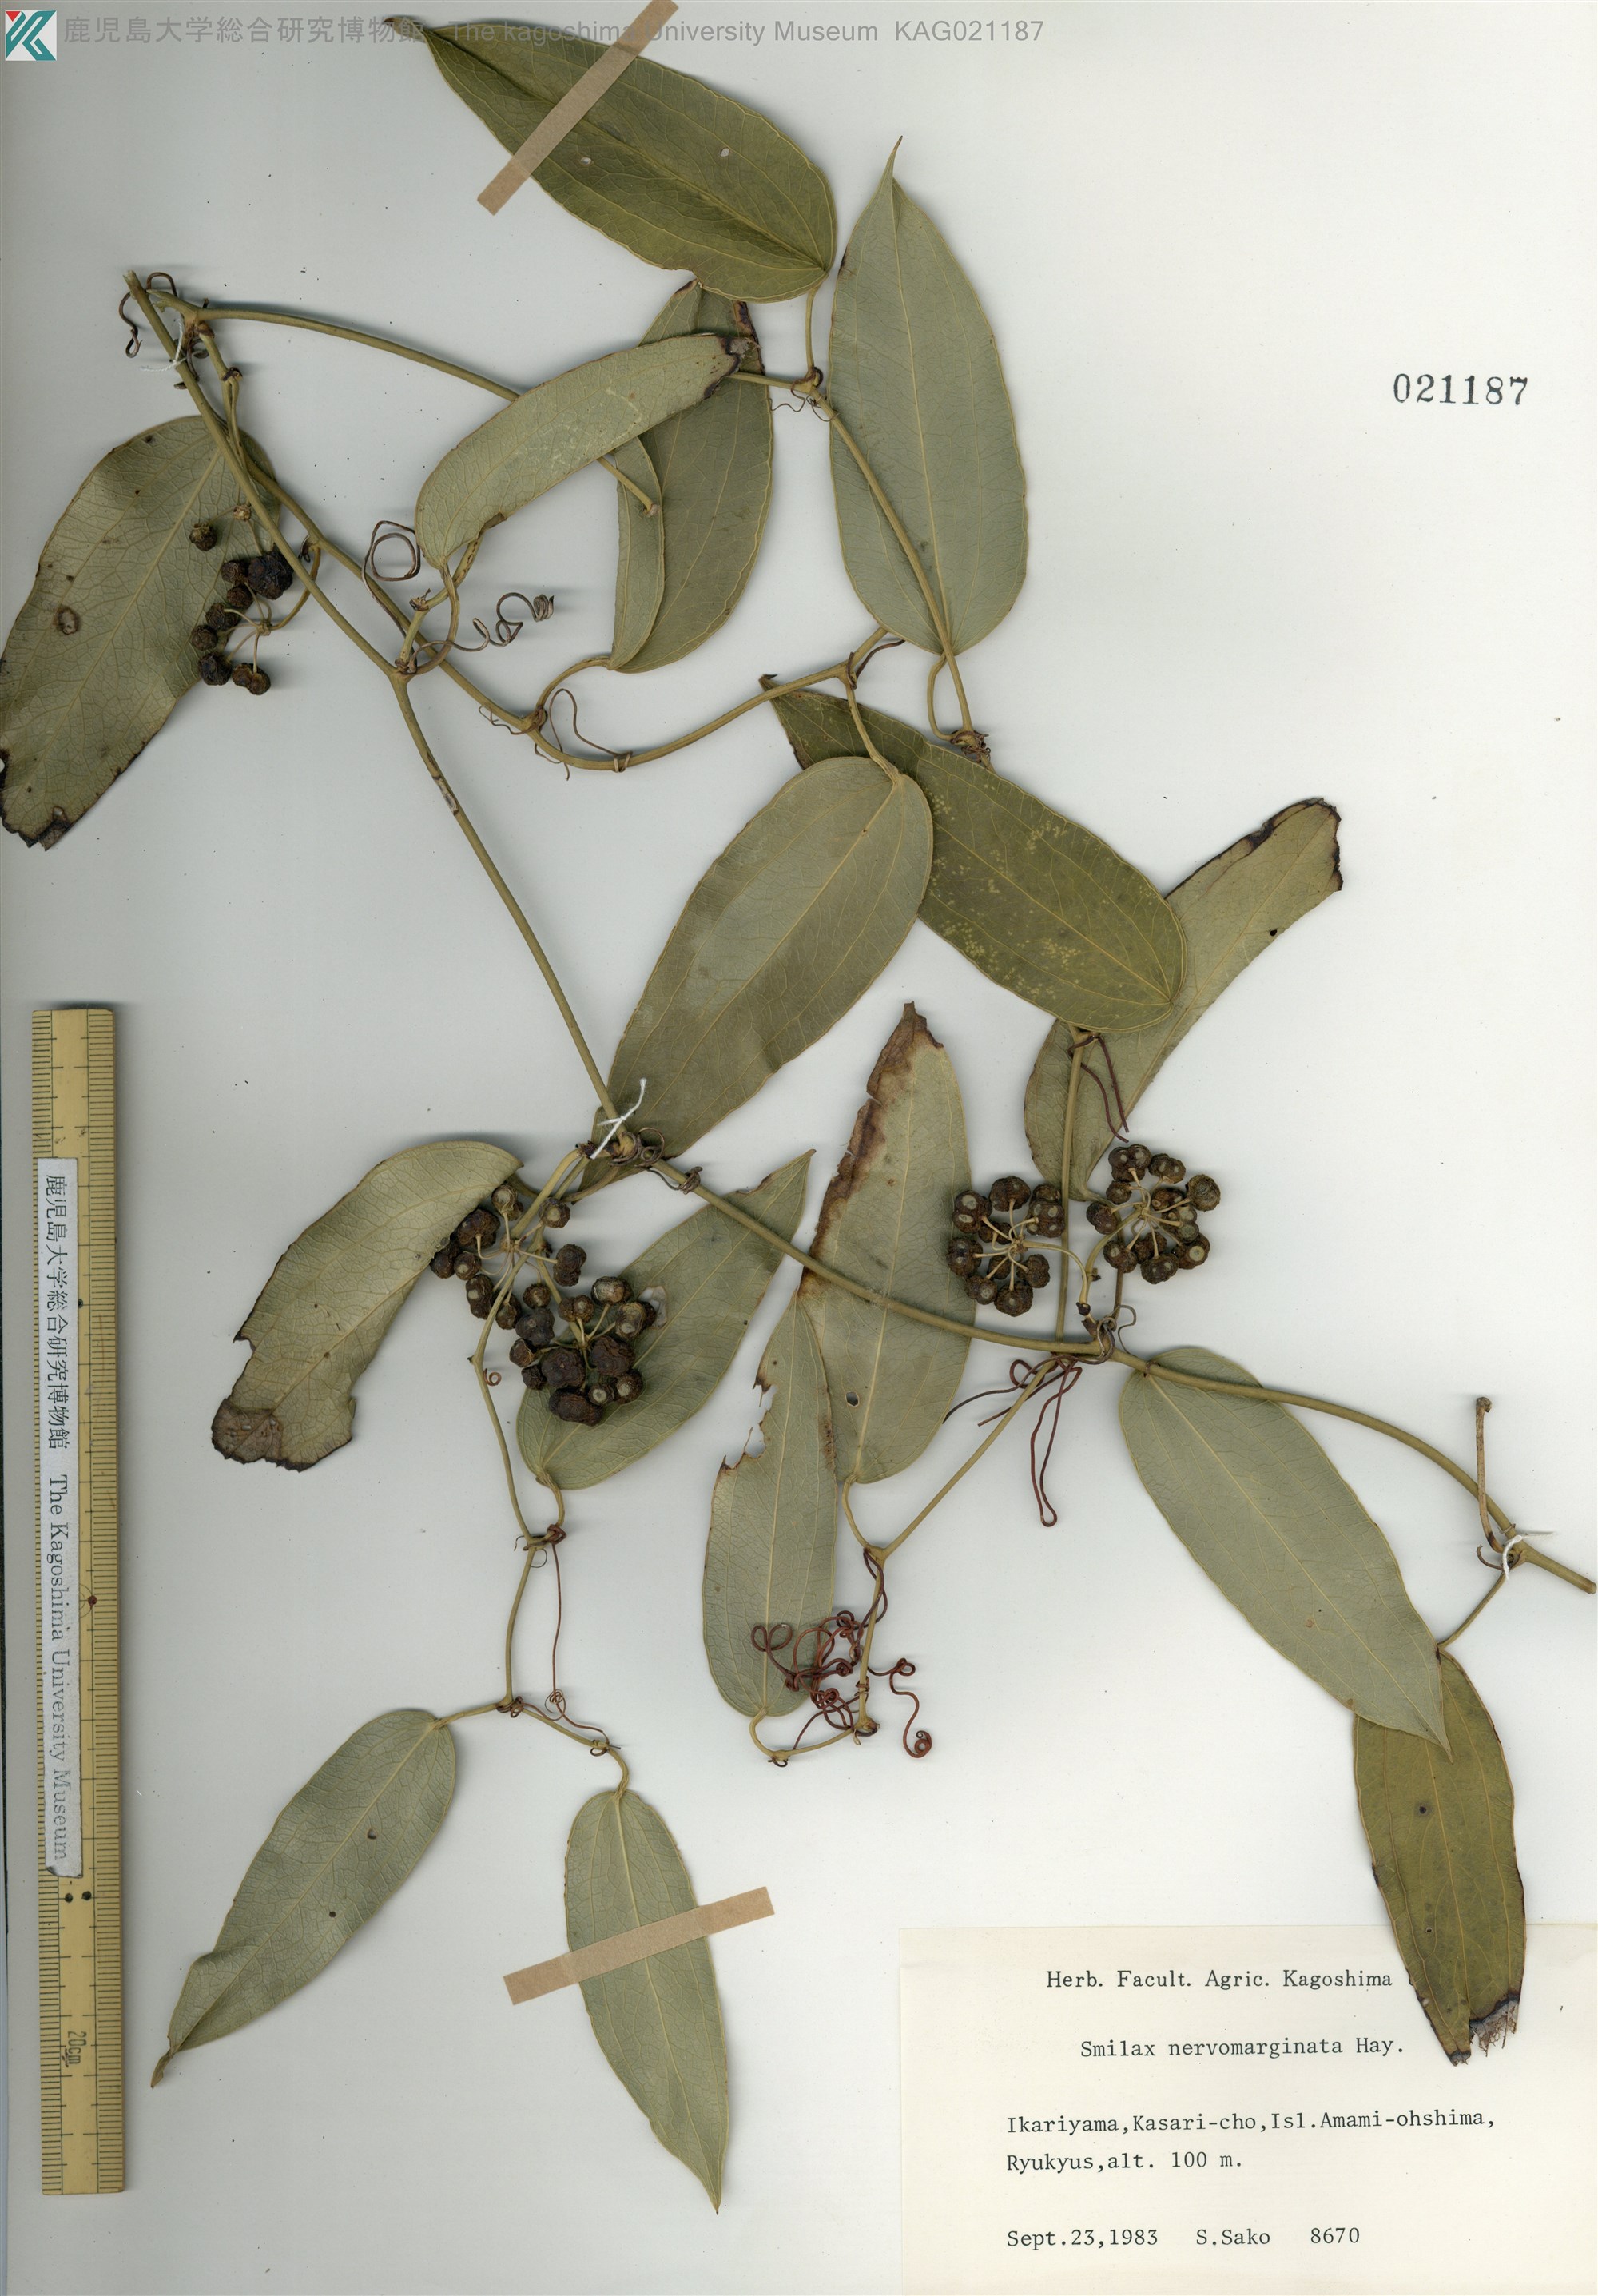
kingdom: Plantae
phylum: Tracheophyta
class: Liliopsida
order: Liliales
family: Smilacaceae
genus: Smilax
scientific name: Smilax nervomarginata
